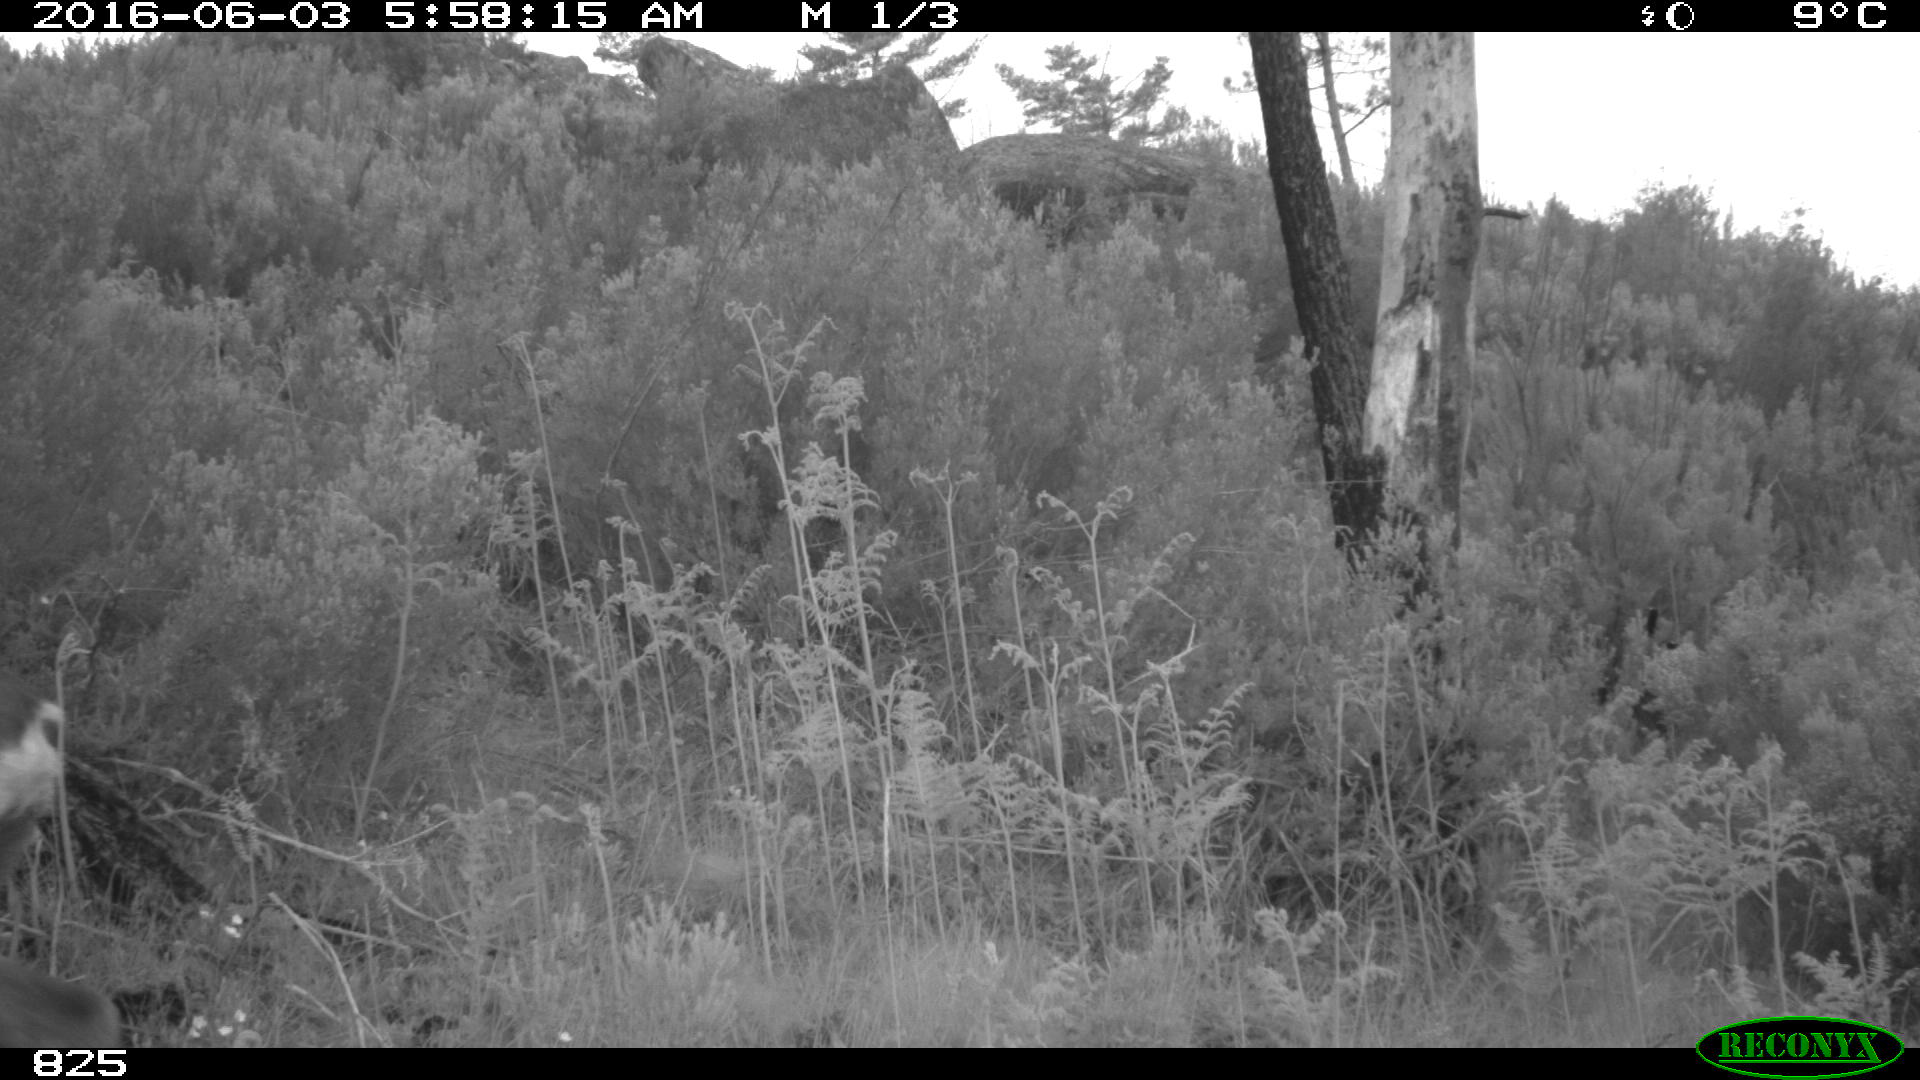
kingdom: Animalia
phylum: Chordata
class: Mammalia
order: Artiodactyla
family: Cervidae
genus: Capreolus
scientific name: Capreolus capreolus
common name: Western roe deer
